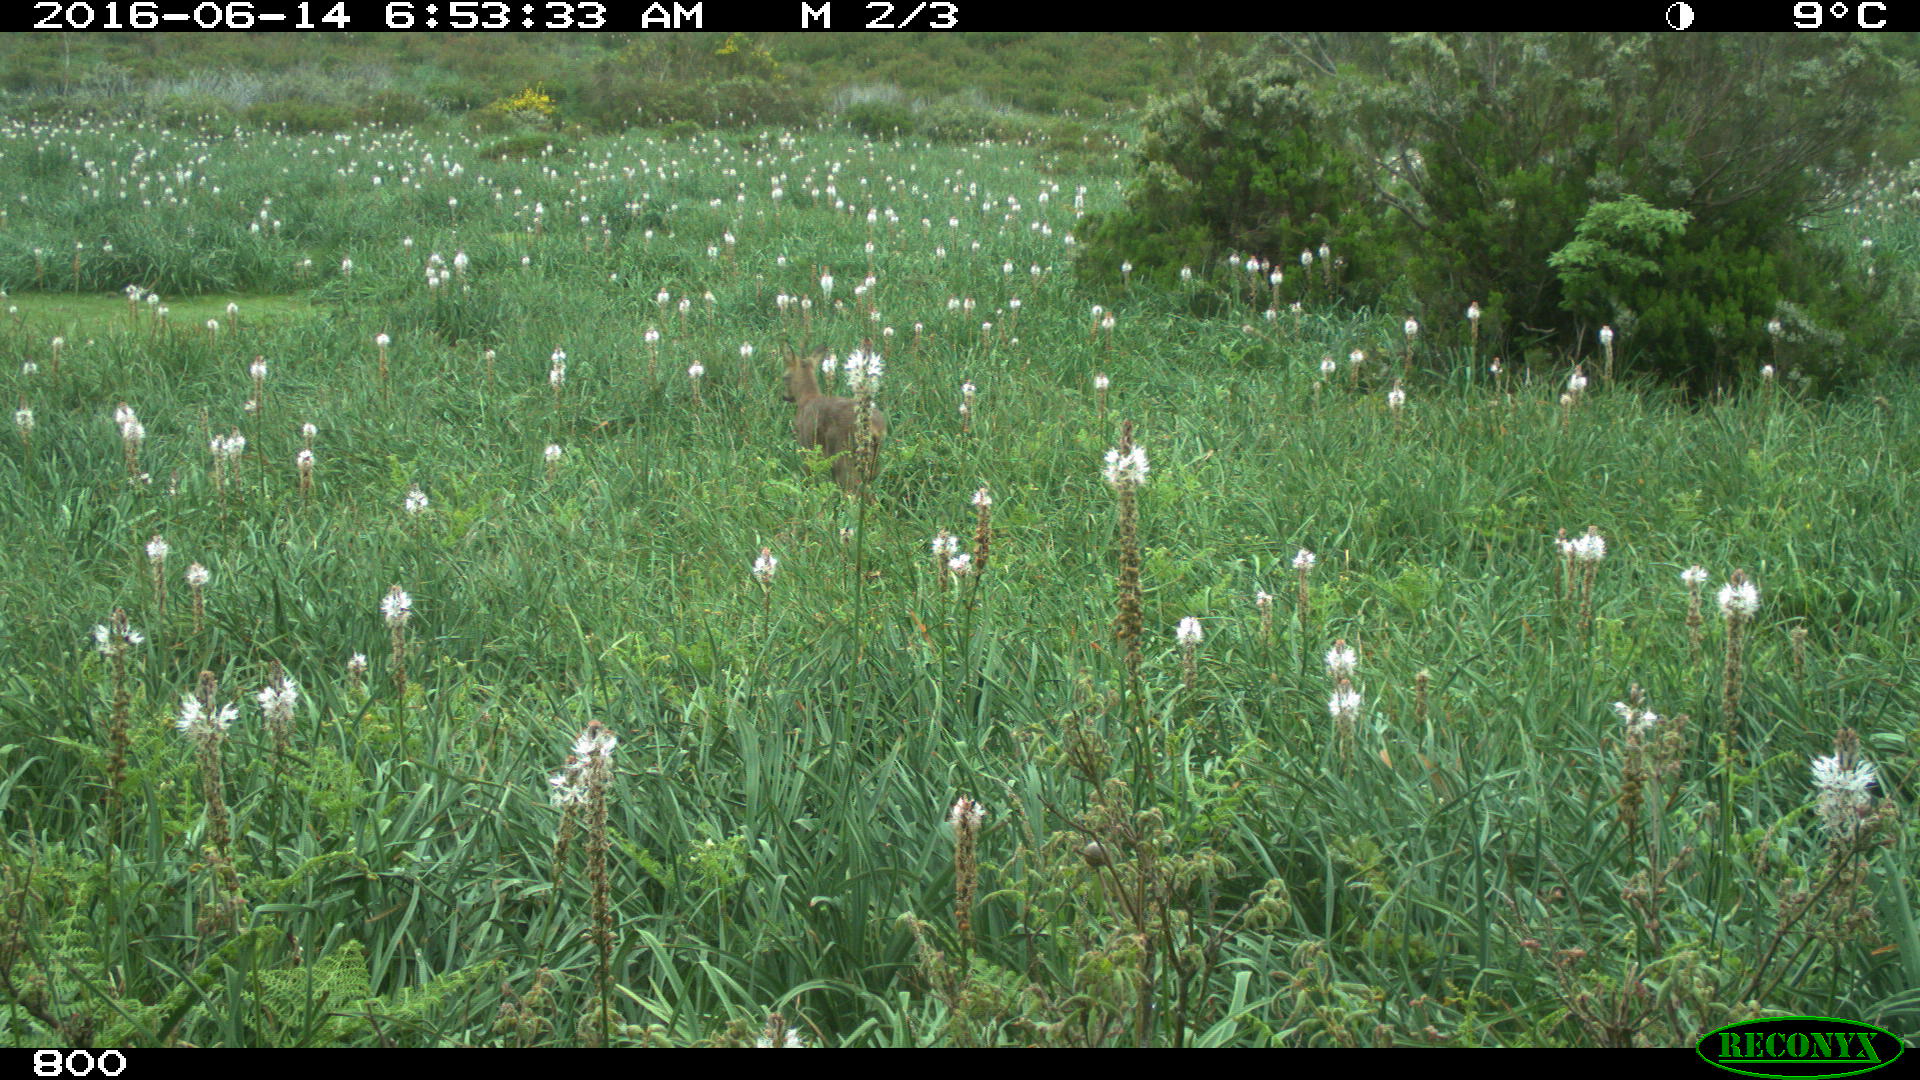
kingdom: Animalia
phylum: Chordata
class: Mammalia
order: Artiodactyla
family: Cervidae
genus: Capreolus
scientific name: Capreolus capreolus
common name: Western roe deer
